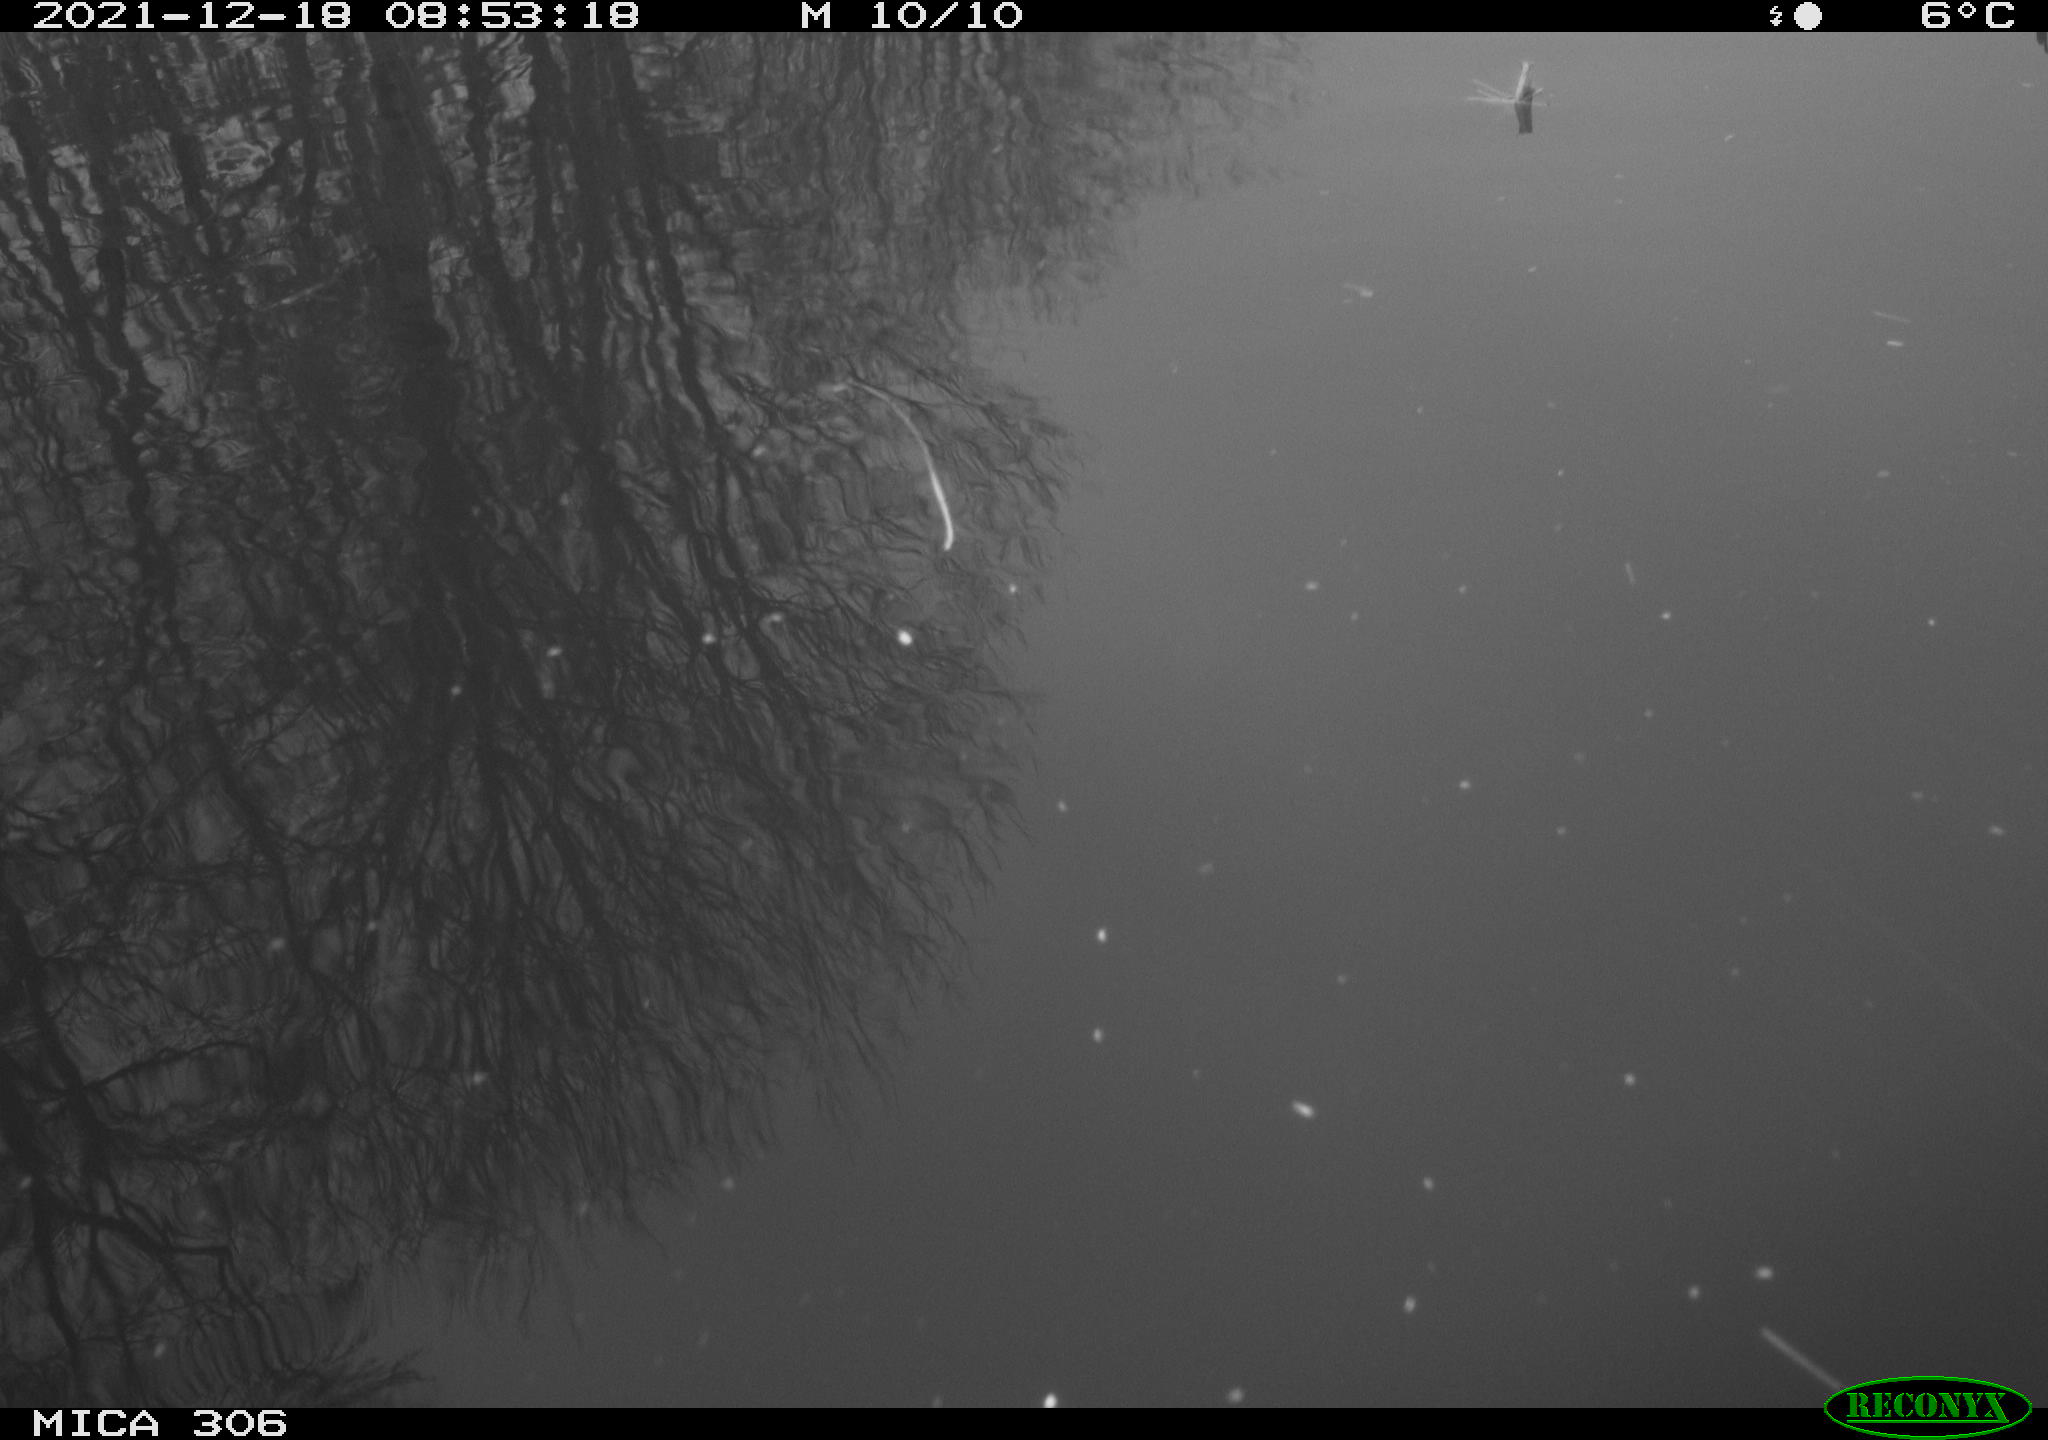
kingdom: Animalia
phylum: Chordata
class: Aves
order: Anseriformes
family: Anatidae
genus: Anas
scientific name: Anas
